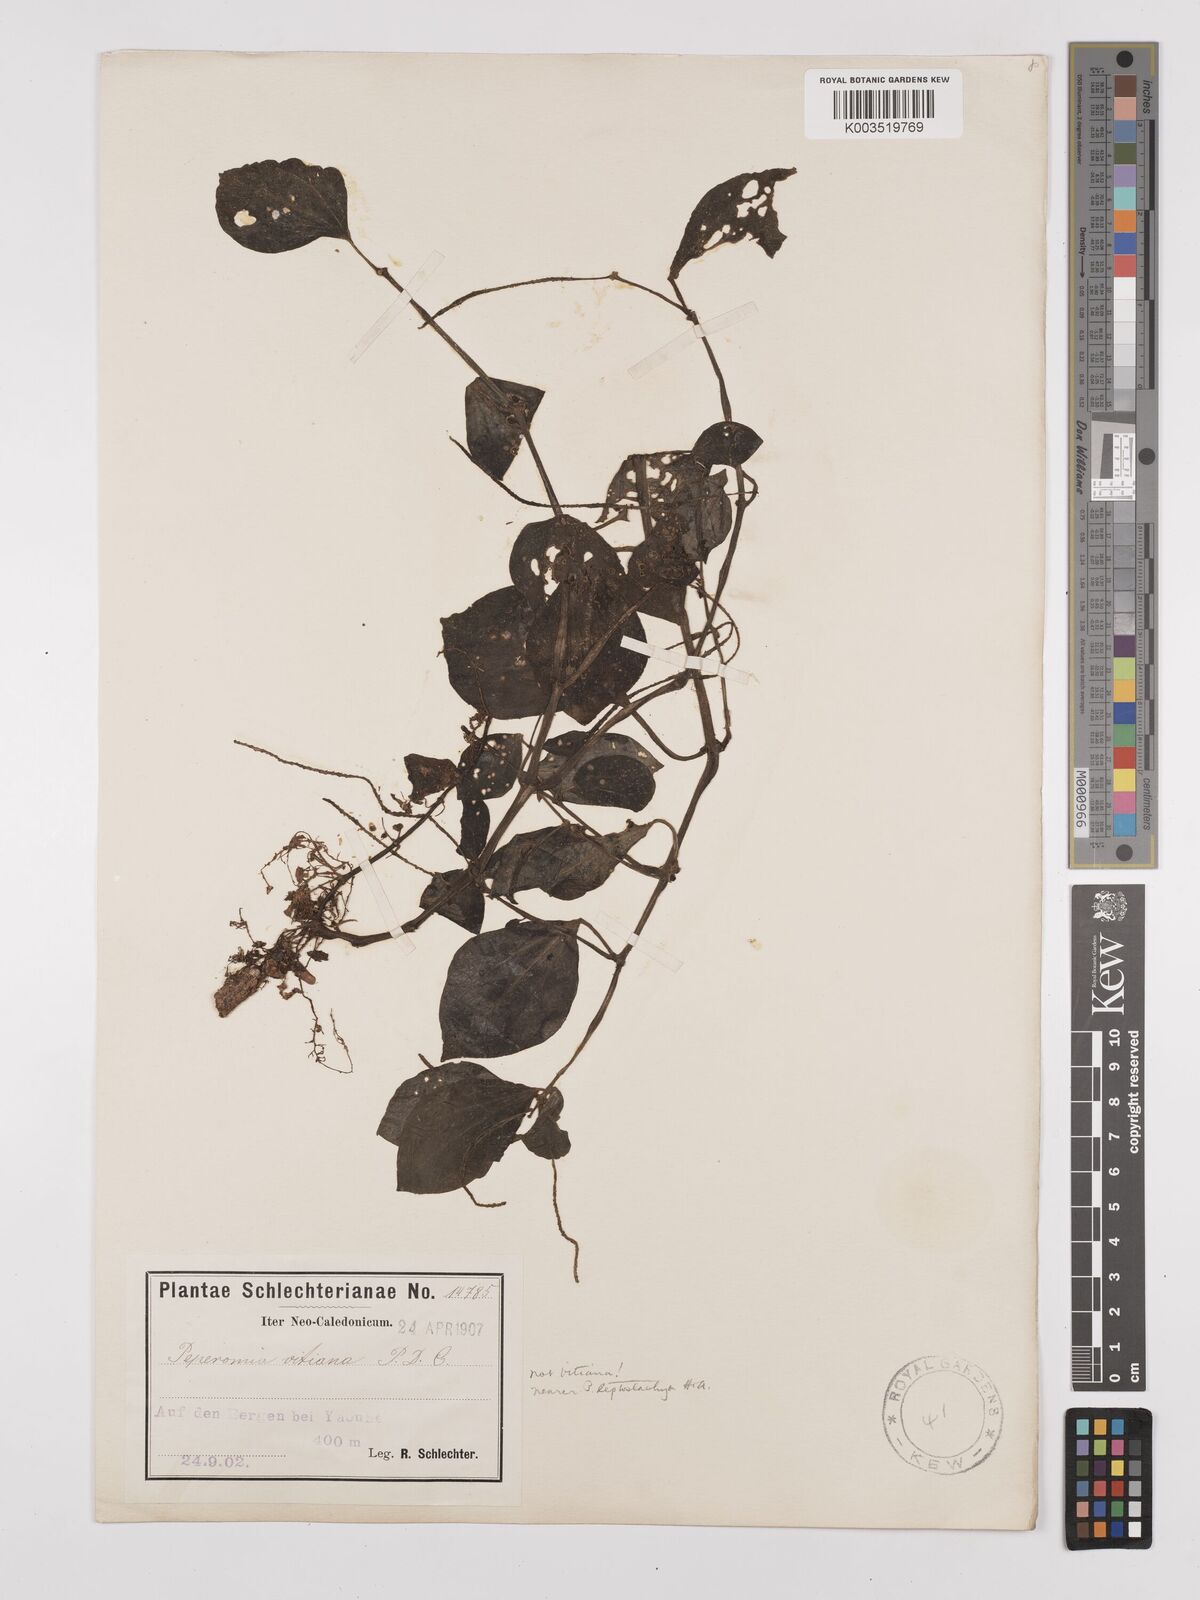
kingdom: Plantae
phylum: Tracheophyta
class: Magnoliopsida
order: Piperales
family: Piperaceae
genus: Peperomia
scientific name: Peperomia leptostachya
